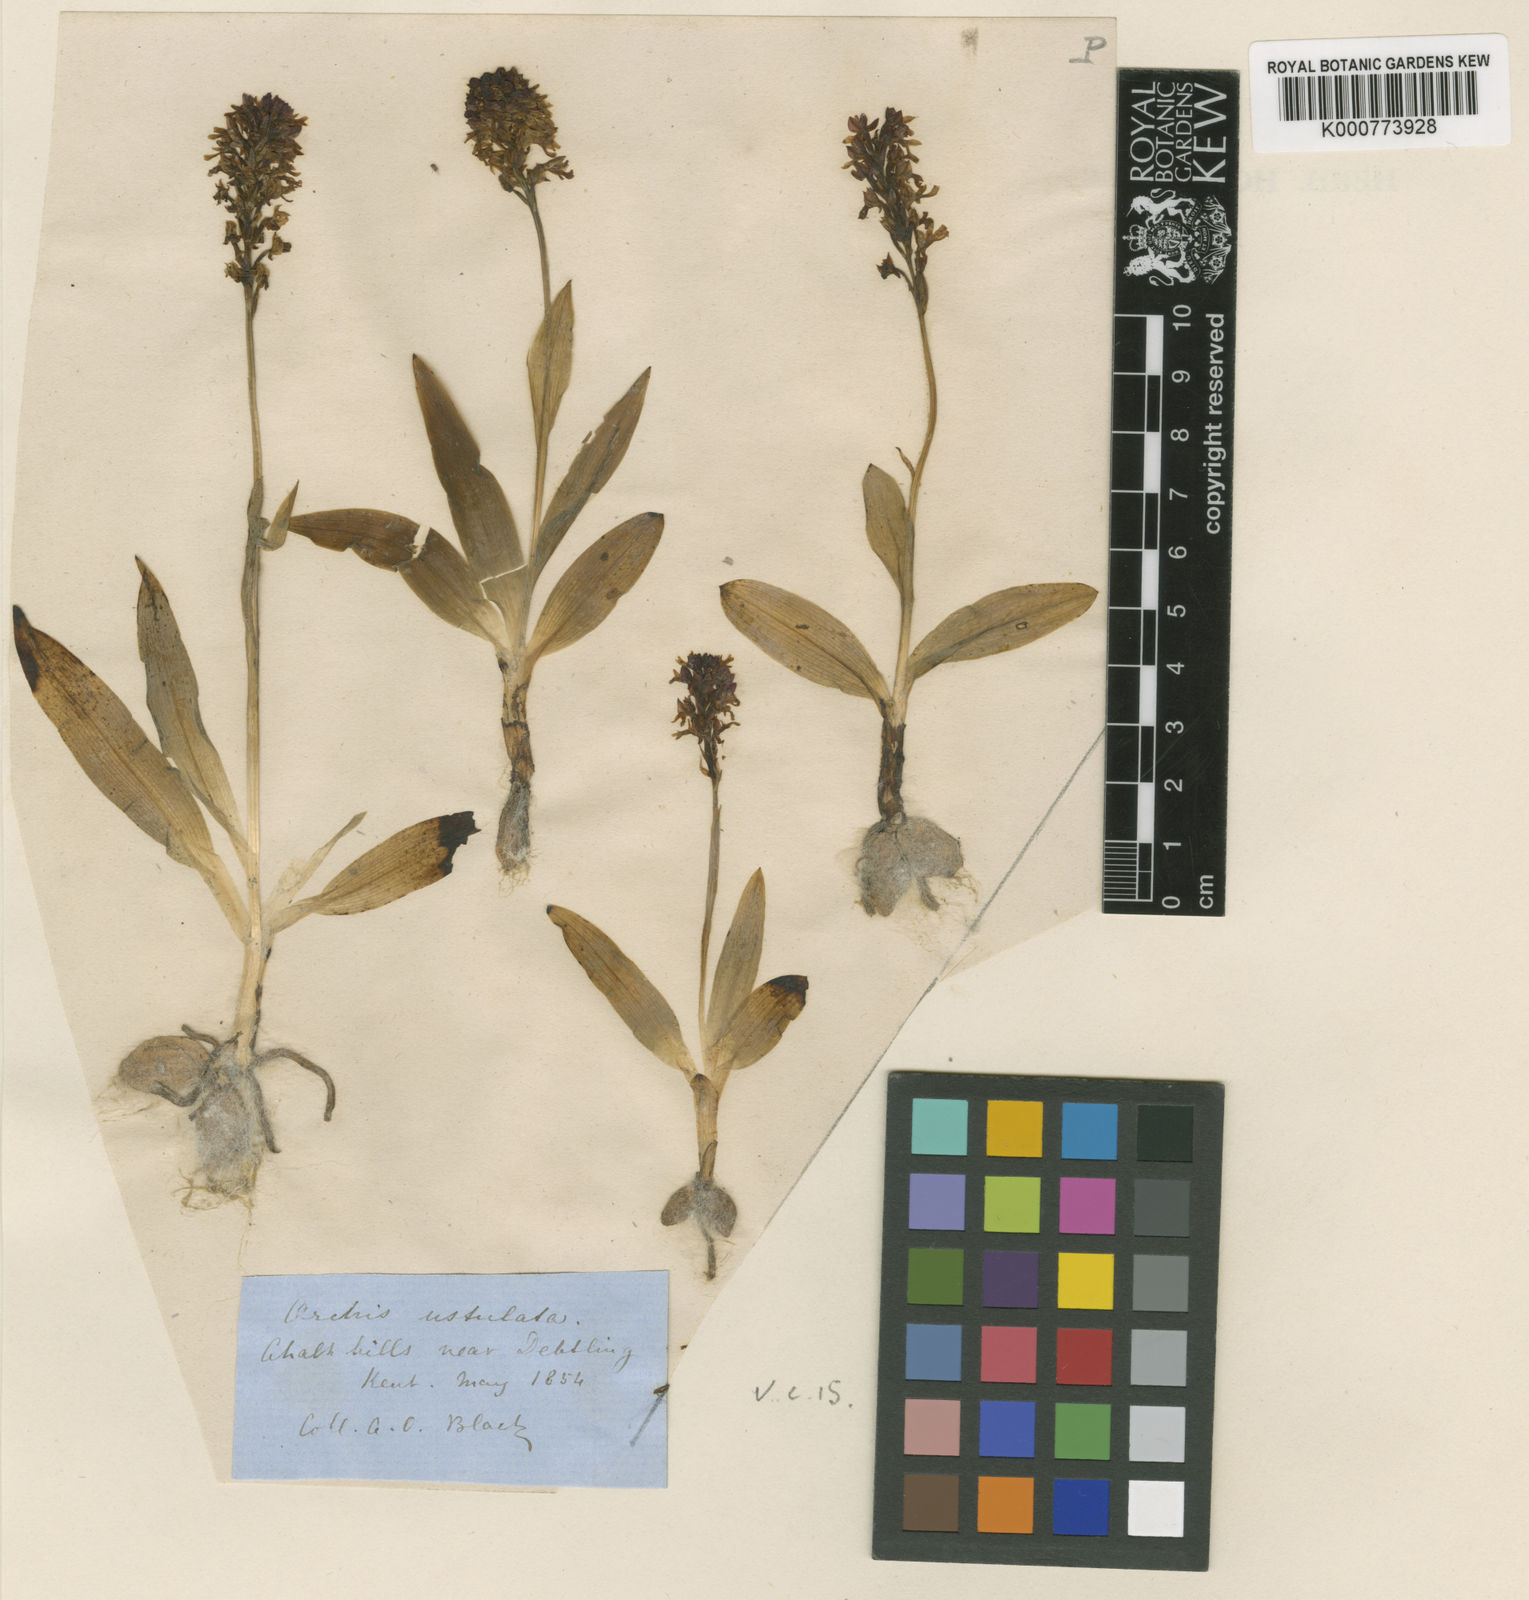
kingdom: Plantae
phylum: Tracheophyta
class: Liliopsida
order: Asparagales
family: Orchidaceae
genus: Neotinea
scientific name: Neotinea ustulata
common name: Burnt orchid
